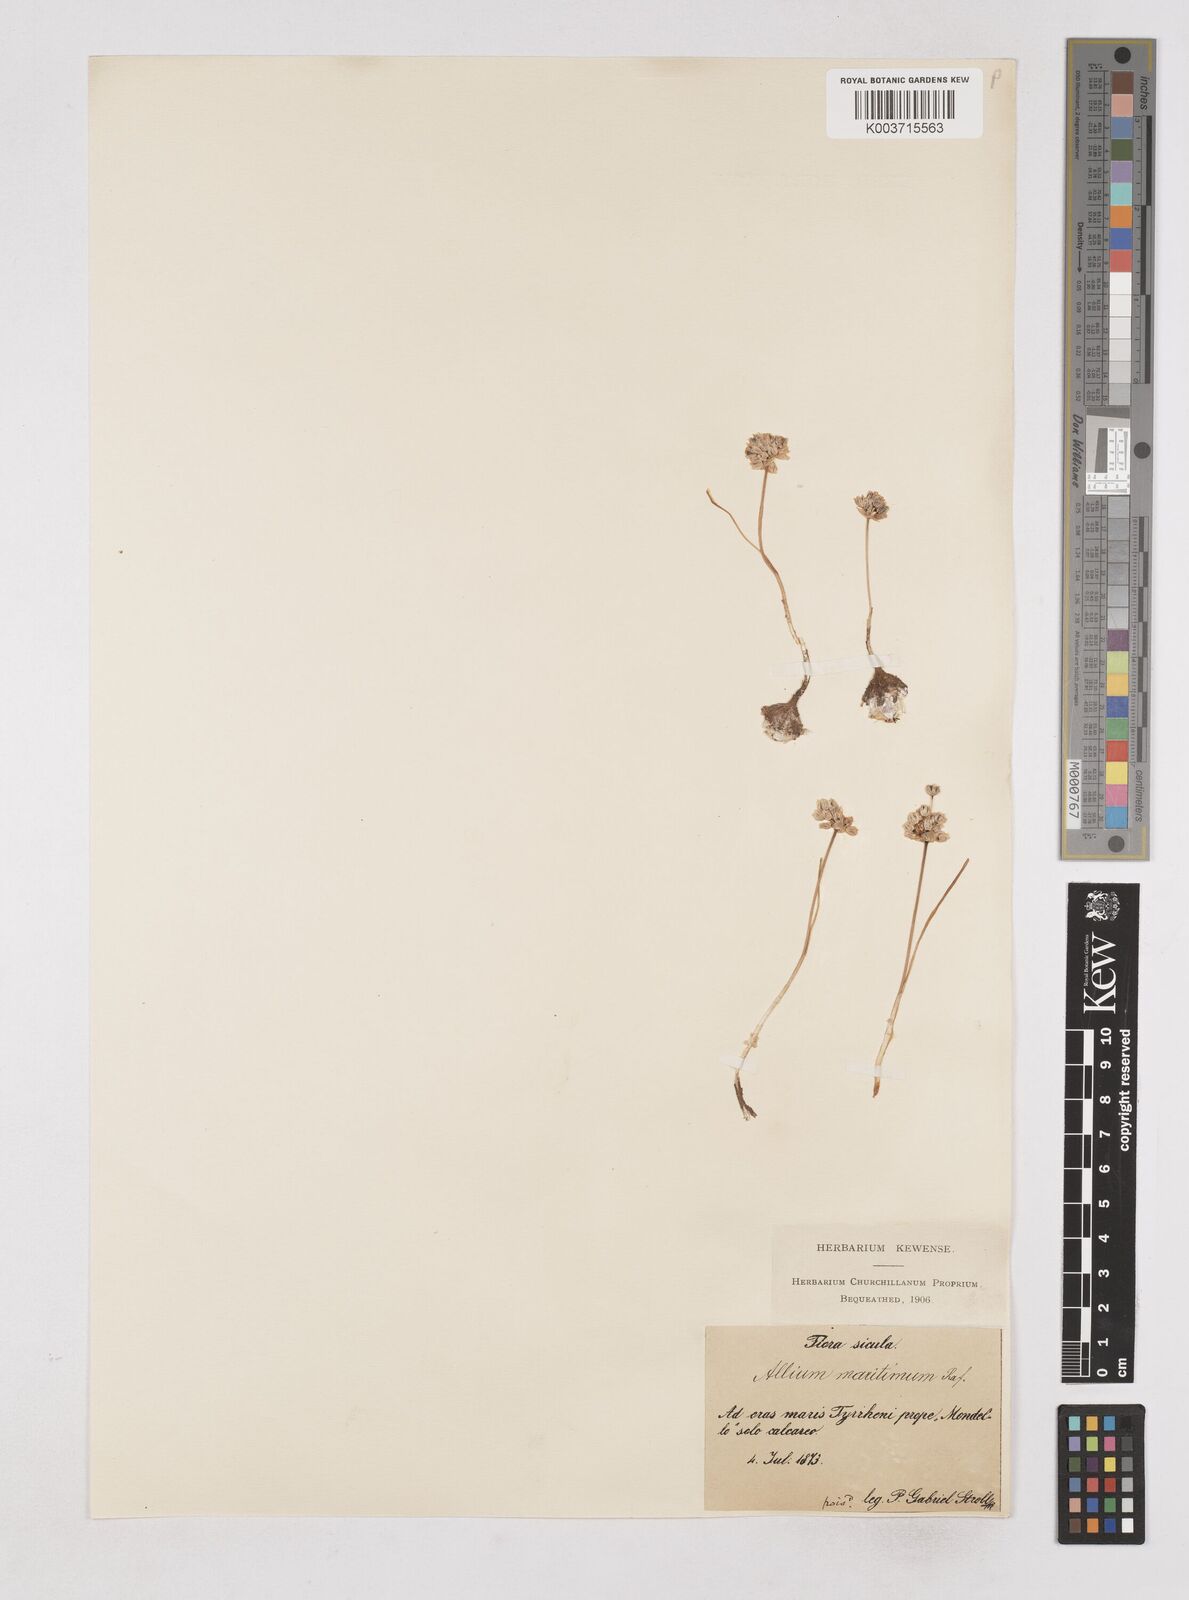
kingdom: Plantae
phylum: Tracheophyta
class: Liliopsida
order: Asparagales
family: Amaryllidaceae
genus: Allium
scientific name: Allium
